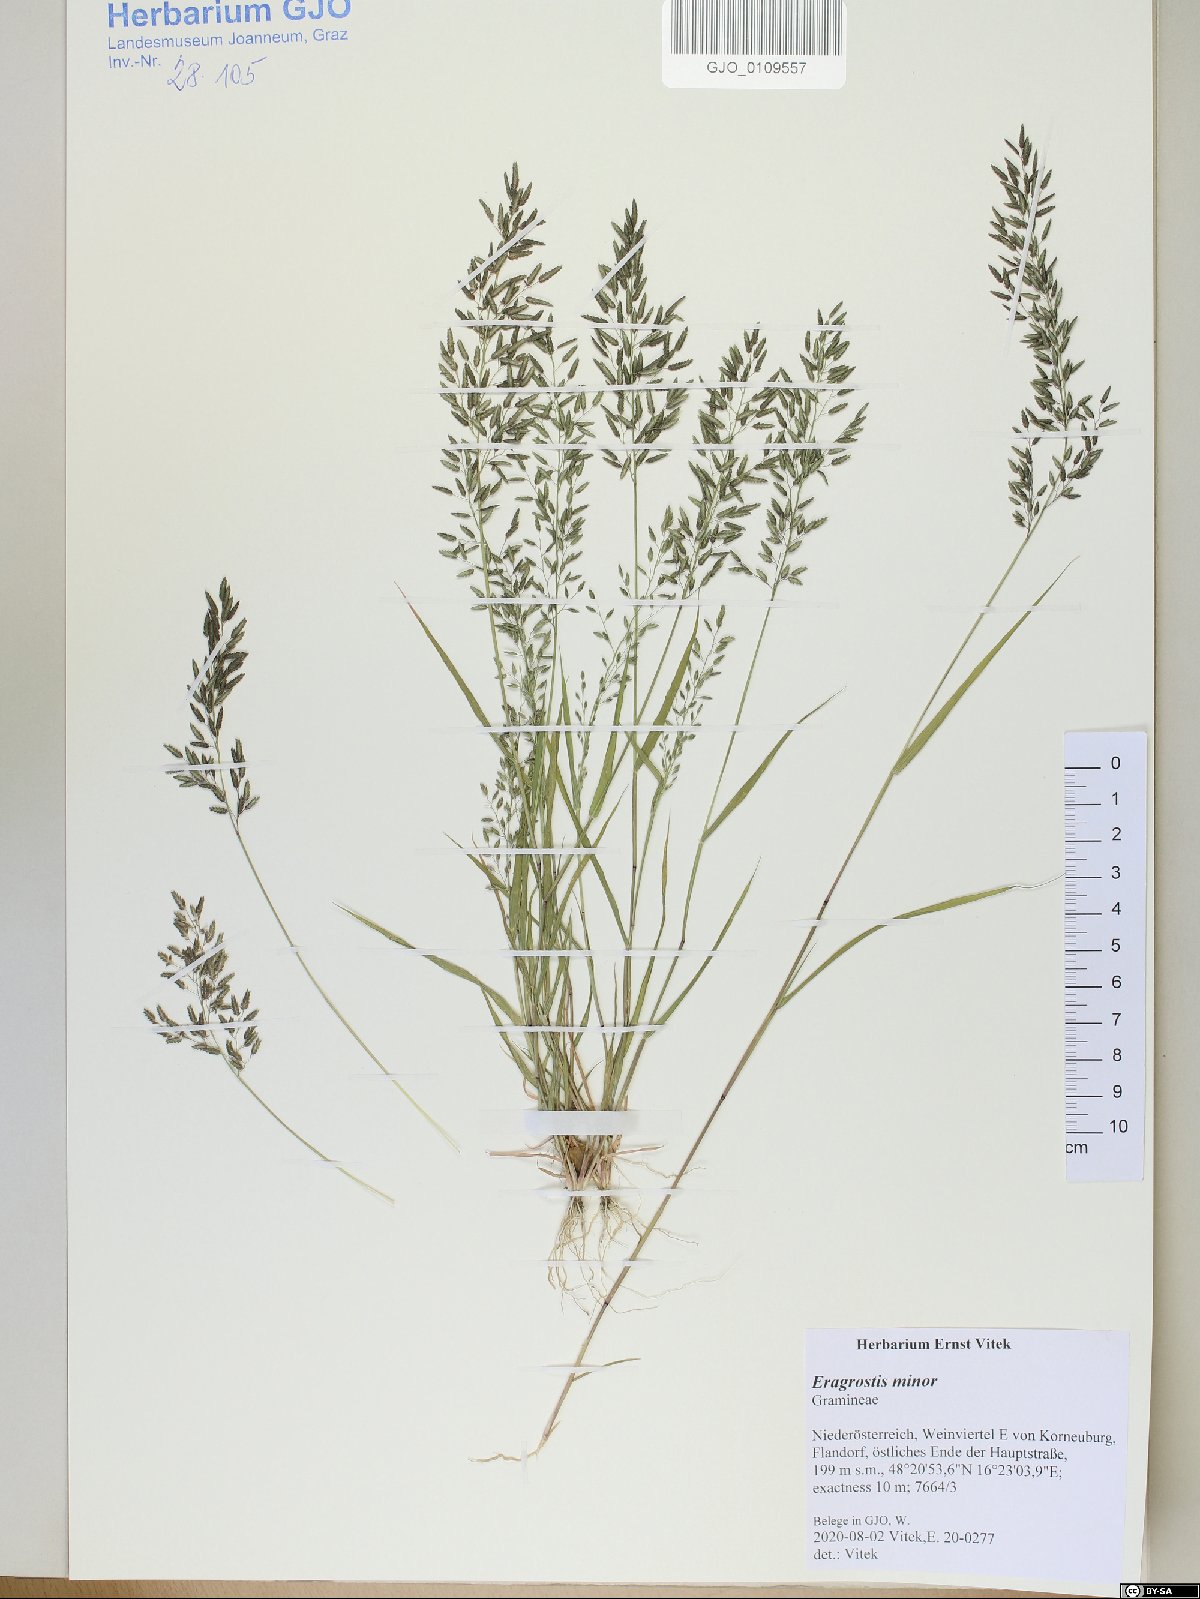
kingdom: Plantae
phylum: Tracheophyta
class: Liliopsida
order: Poales
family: Poaceae
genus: Eragrostis
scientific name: Eragrostis minor
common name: Small love-grass
